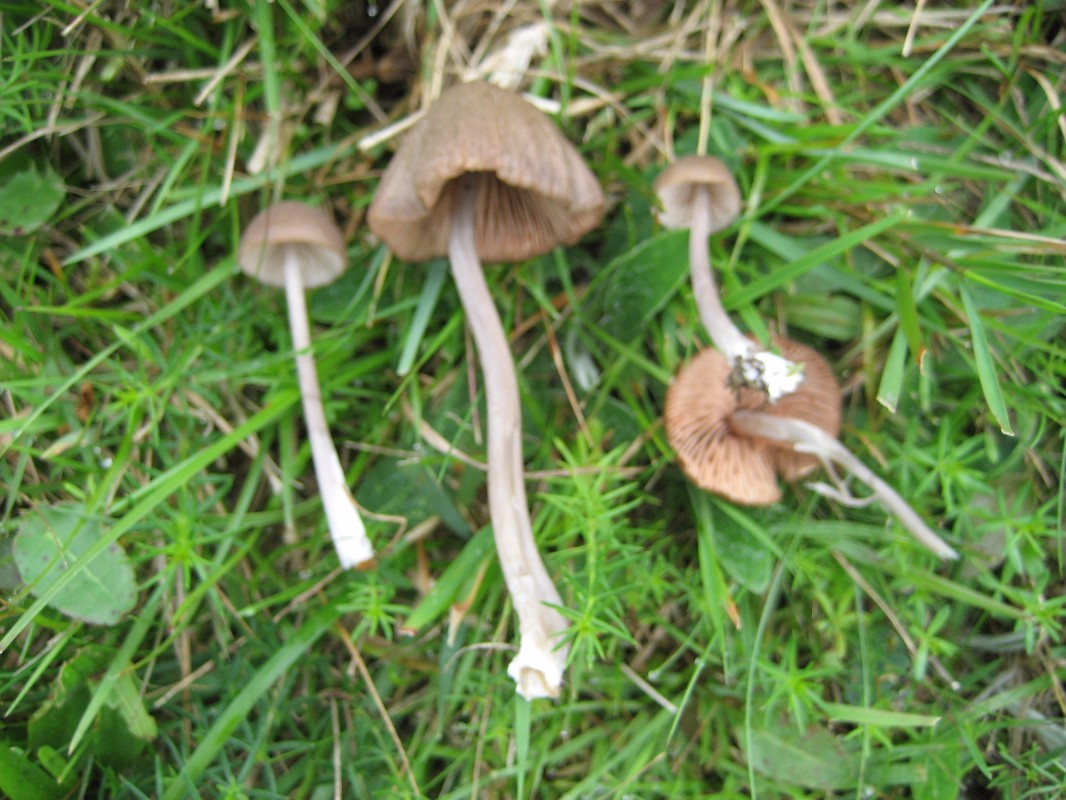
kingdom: Fungi
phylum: Basidiomycota
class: Agaricomycetes
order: Agaricales
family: Entolomataceae
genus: Entoloma
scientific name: Entoloma griseocyaneum
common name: gråblå rødblad
